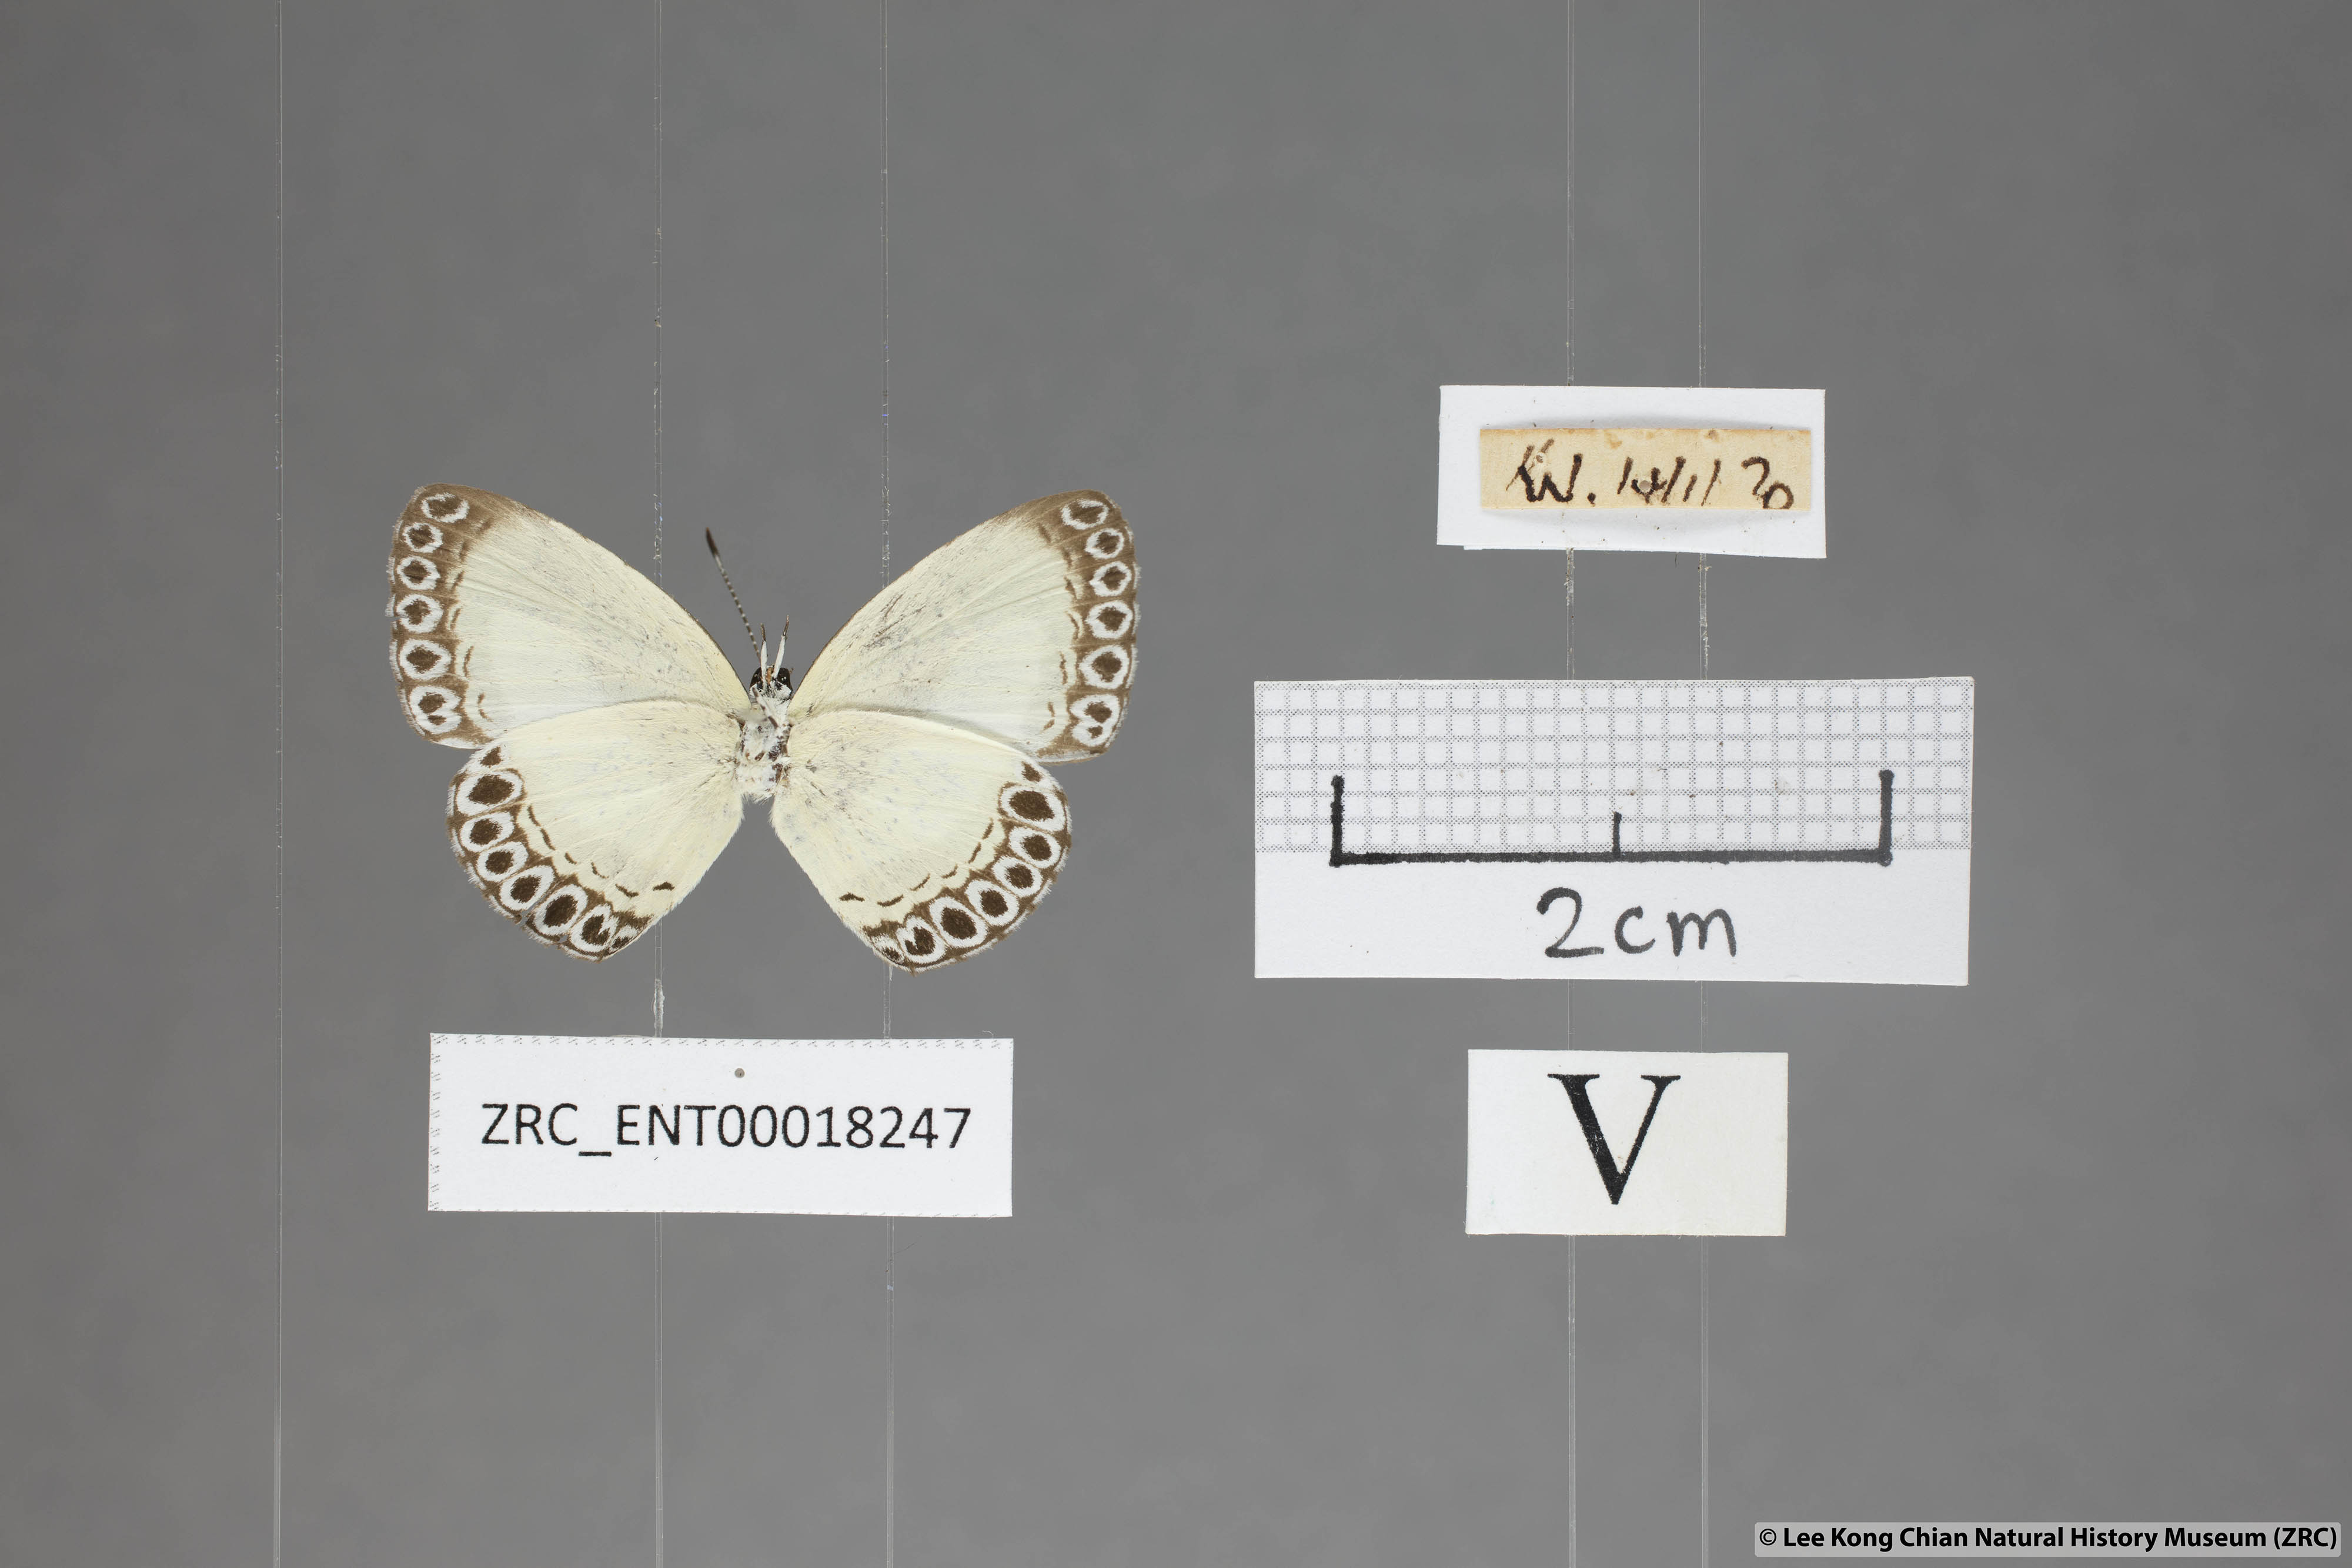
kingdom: Animalia
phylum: Arthropoda
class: Insecta
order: Lepidoptera
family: Lycaenidae
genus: Lycaenopsis
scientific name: Lycaenopsis haraldus
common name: Felder's hedge blue
